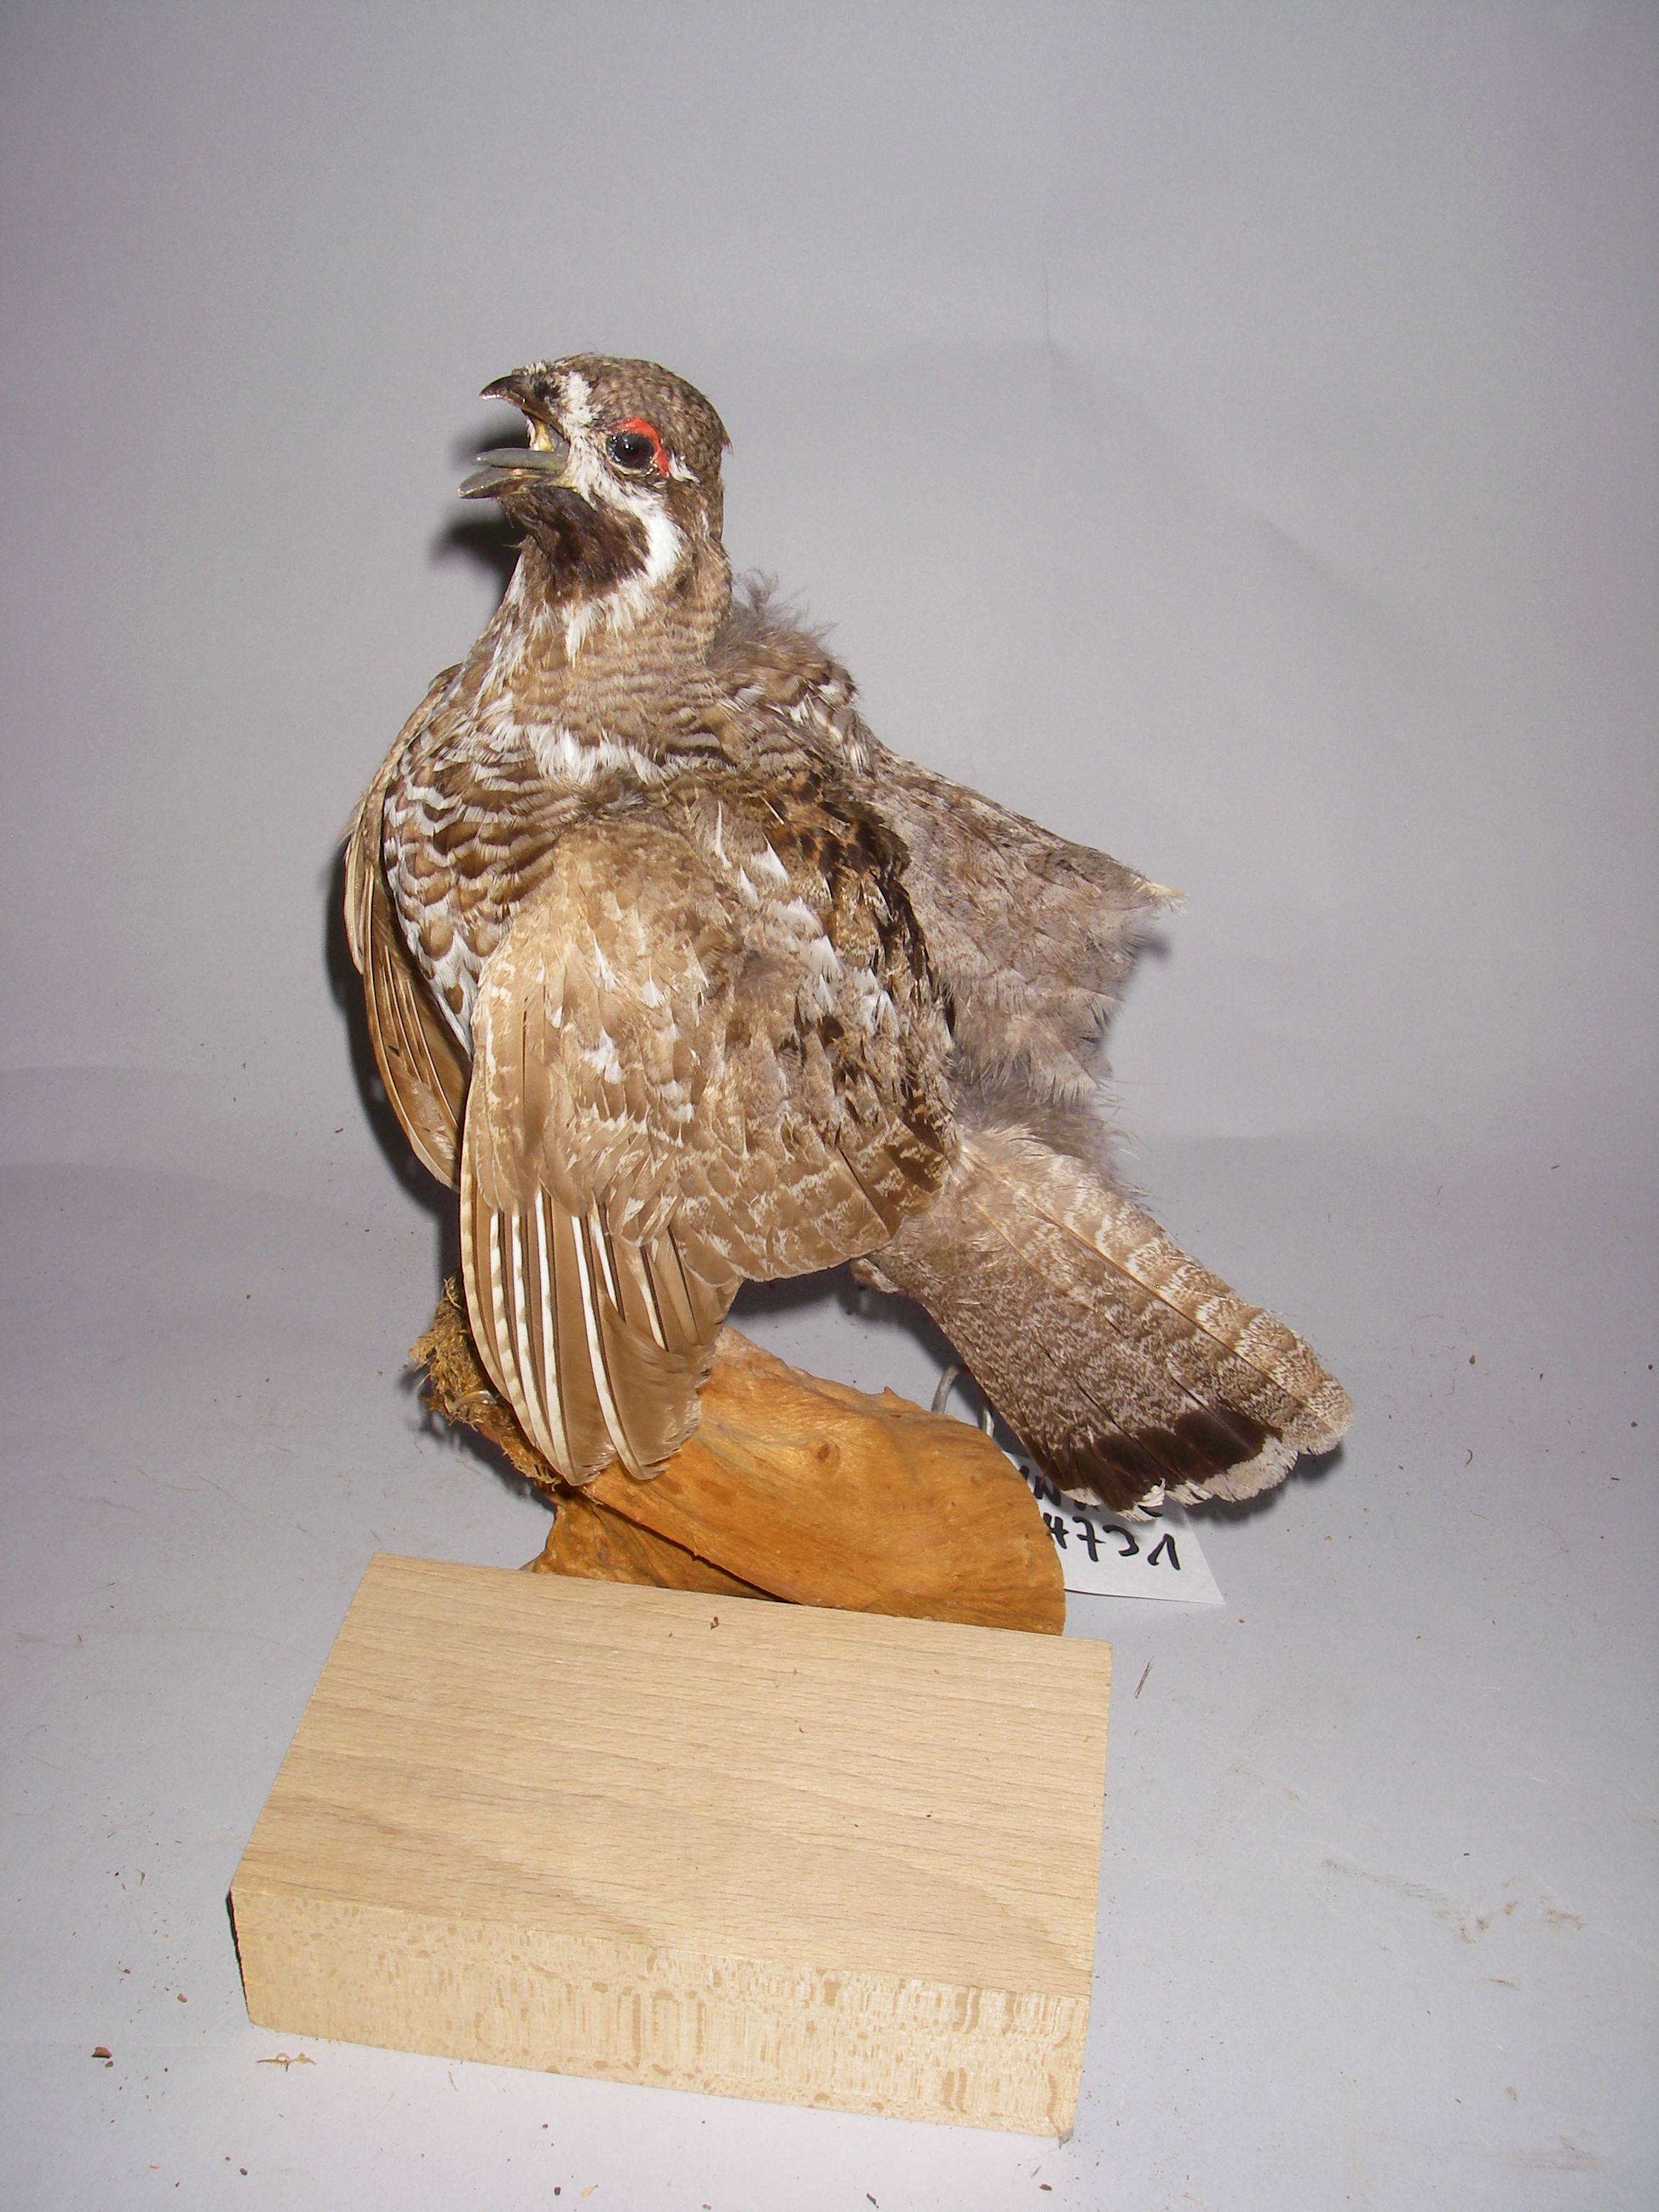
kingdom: Animalia
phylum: Chordata
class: Aves
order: Galliformes
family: Phasianidae
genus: Tetrastes
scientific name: Tetrastes bonasia
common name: Hazel grouse
